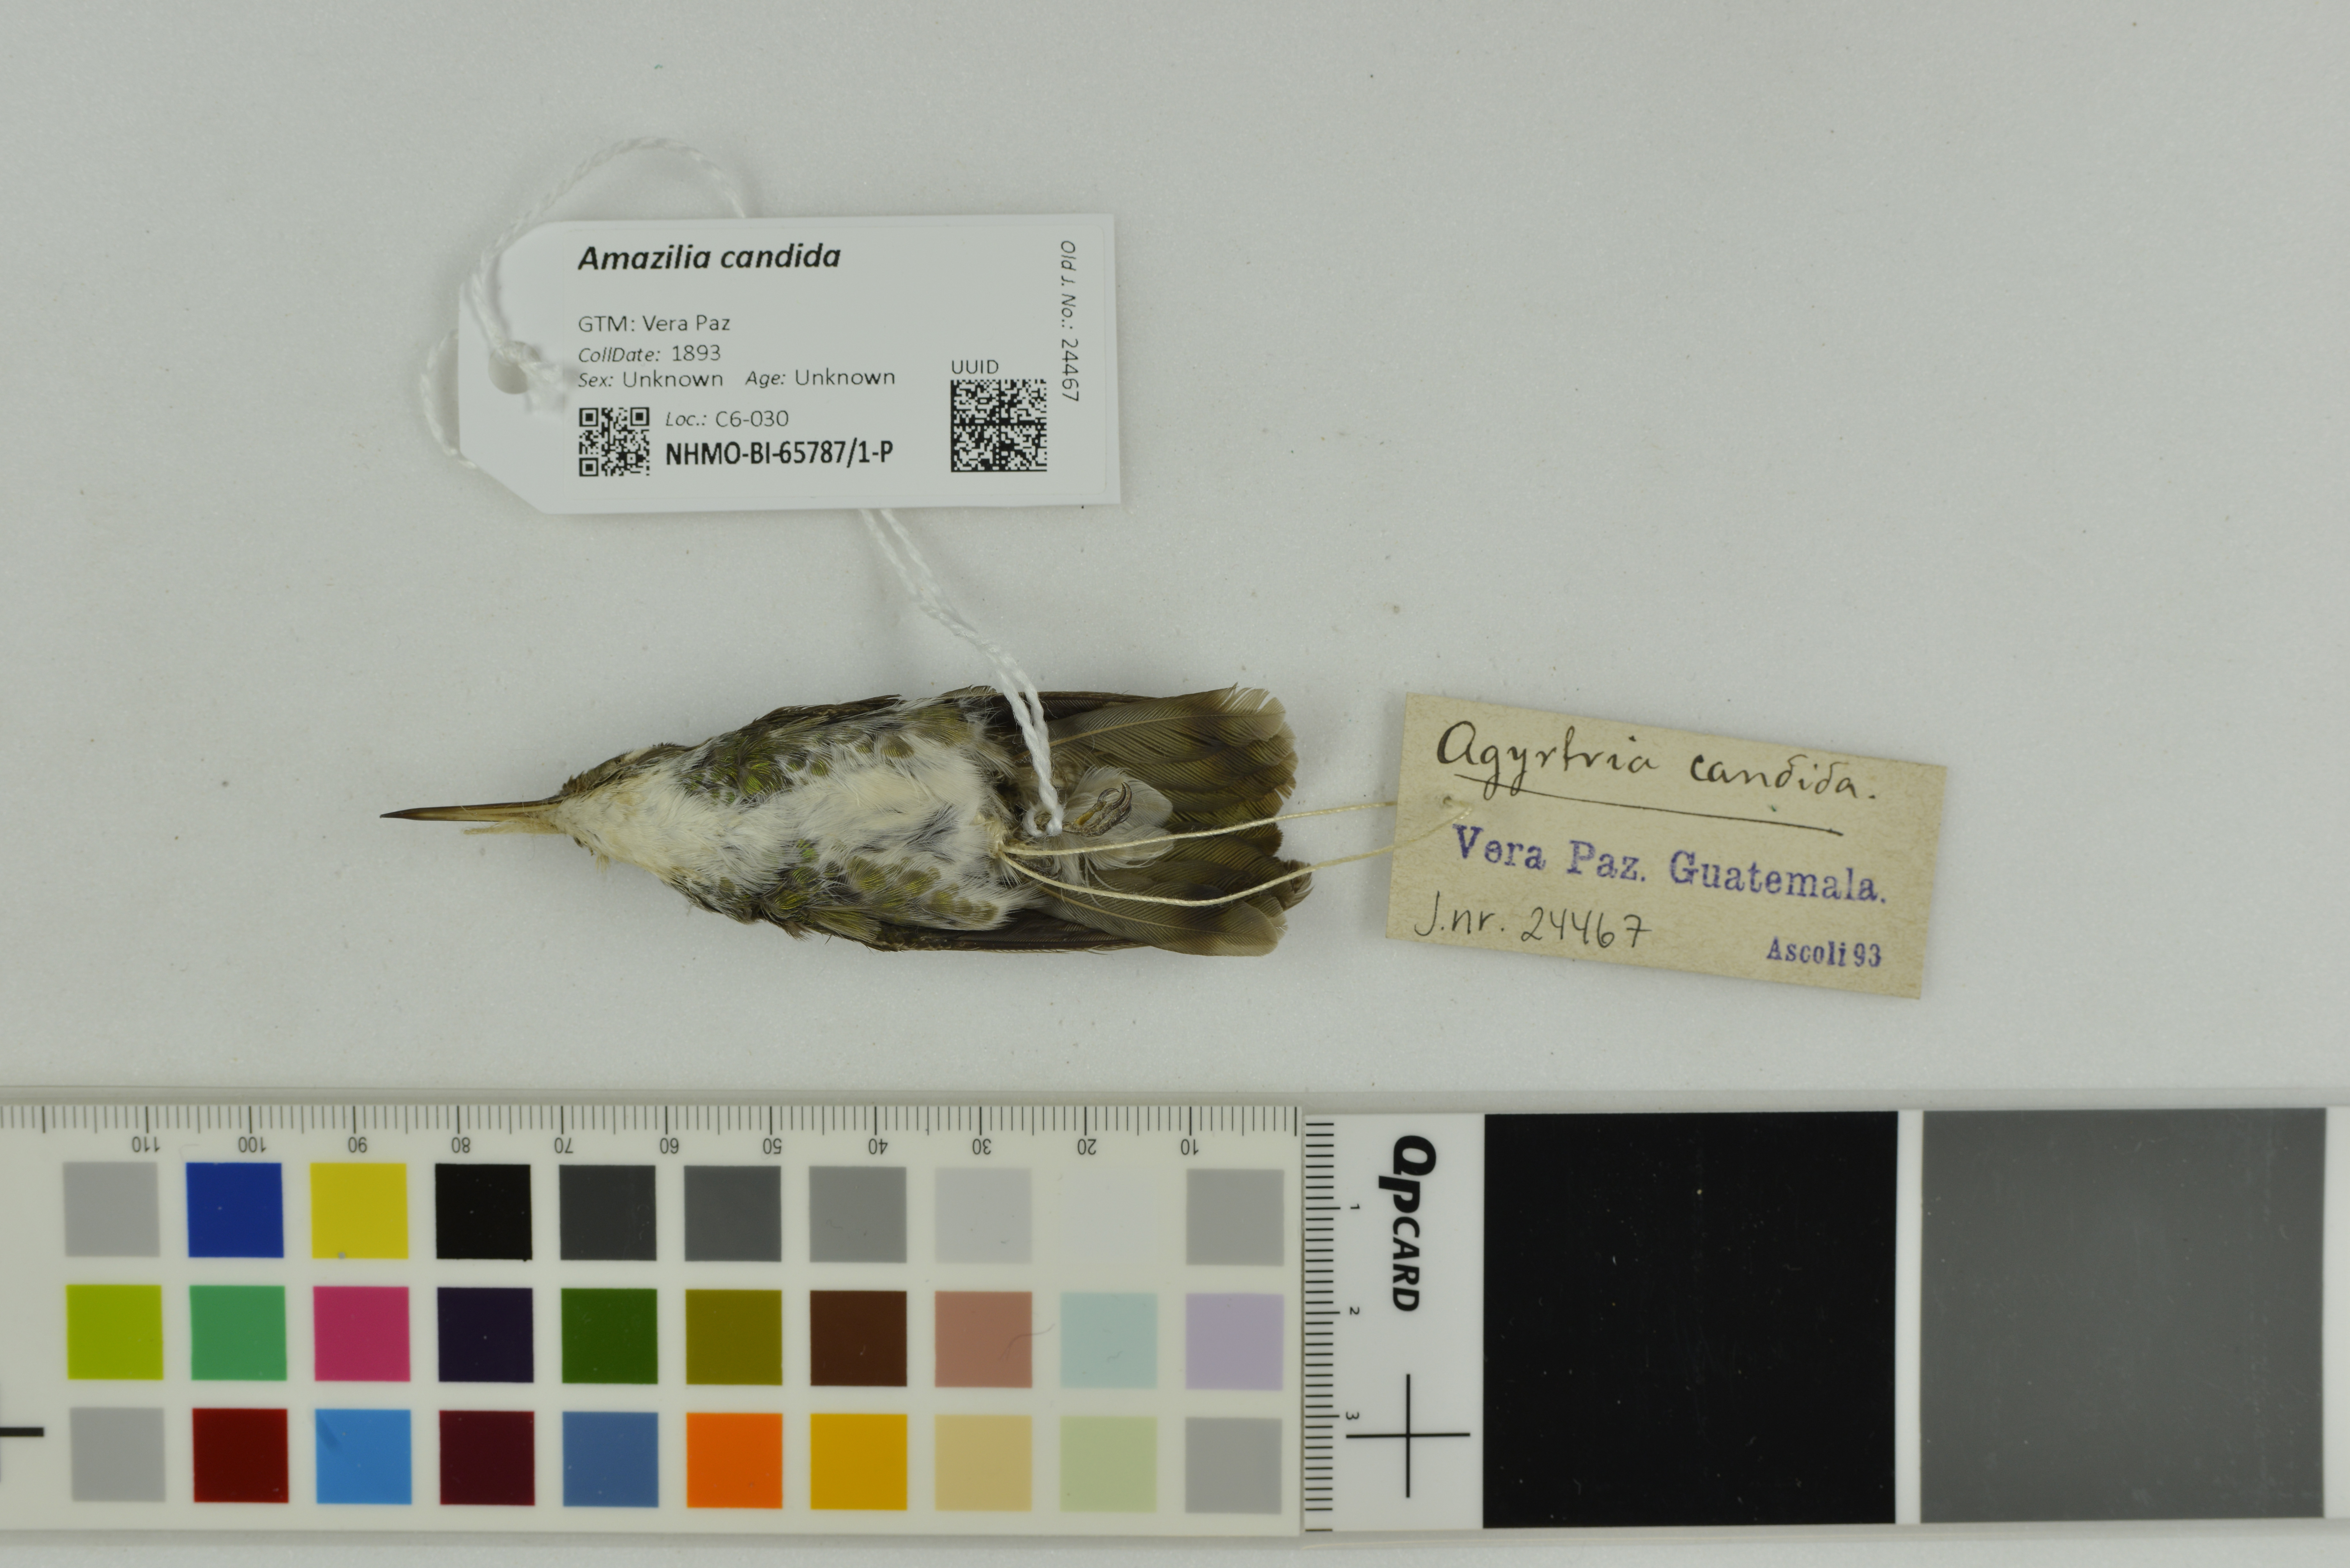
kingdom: Animalia
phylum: Chordata
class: Aves
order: Apodiformes
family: Trochilidae
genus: Chlorestes
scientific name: Chlorestes candida
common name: White-bellied emerald
